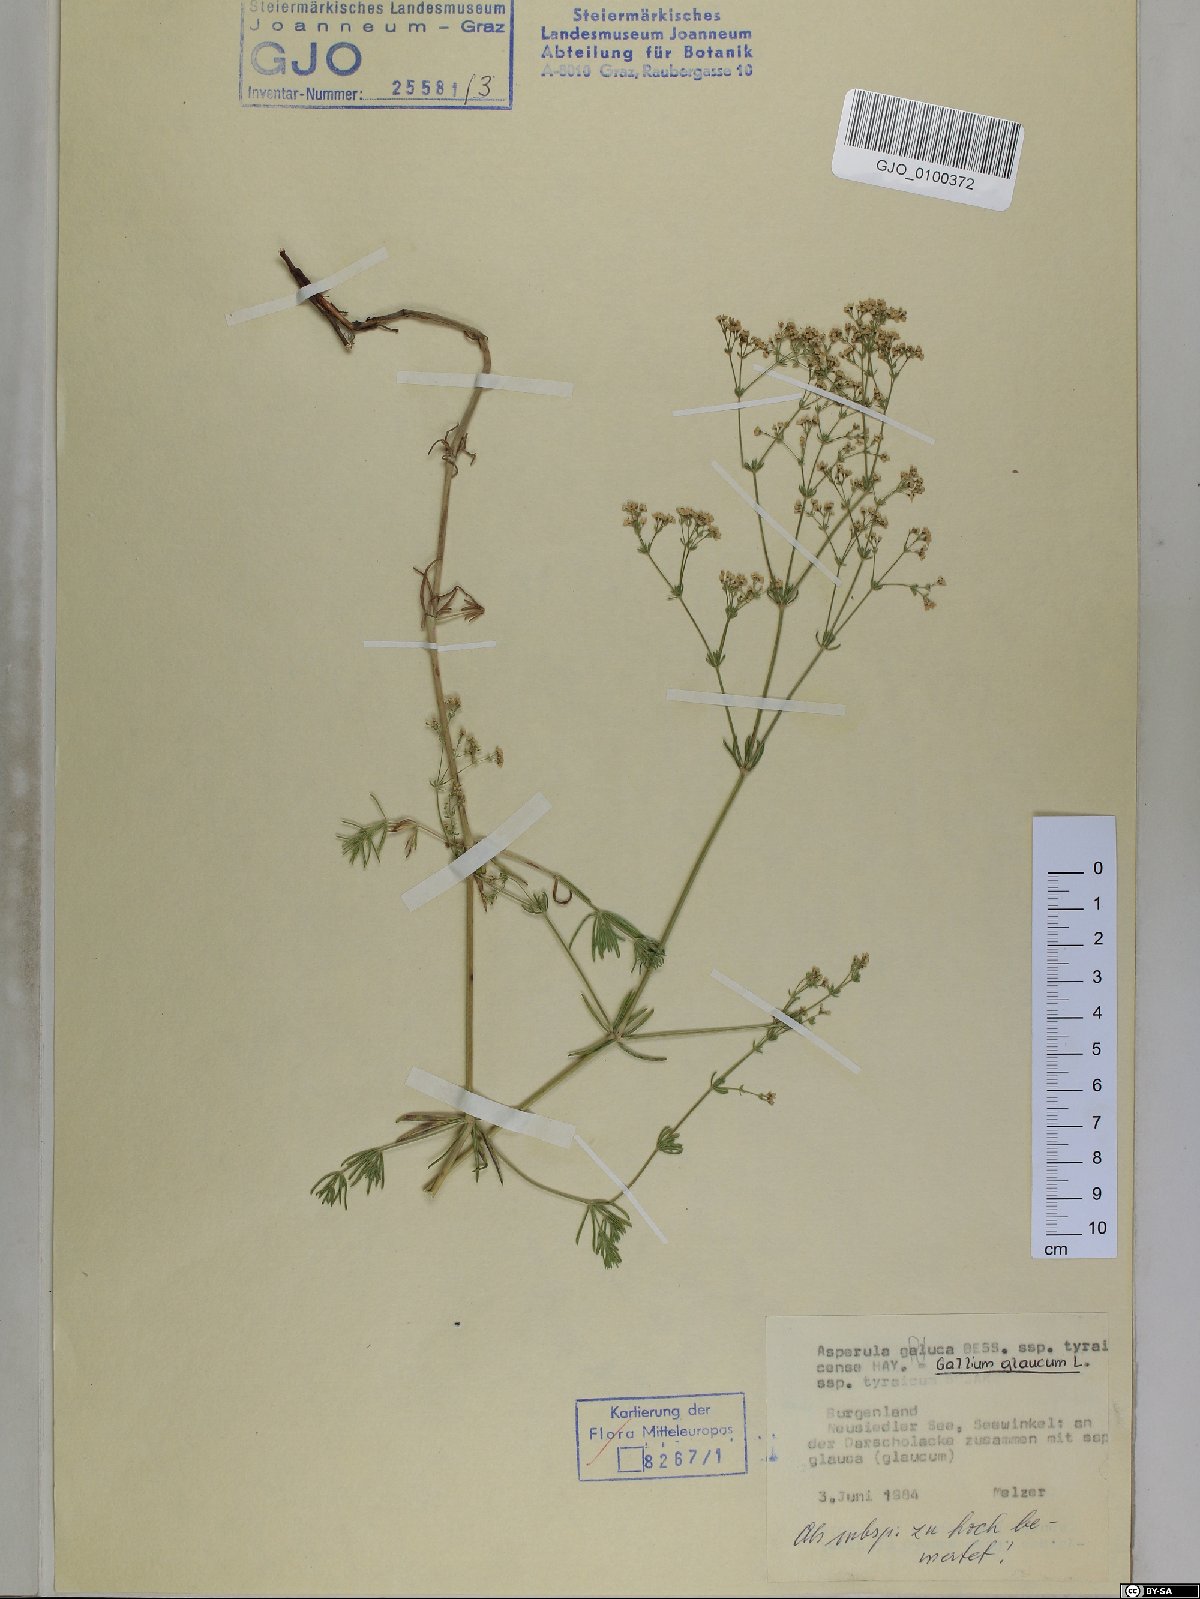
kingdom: Plantae
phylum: Tracheophyta
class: Magnoliopsida
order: Gentianales
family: Rubiaceae
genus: Galium
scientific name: Galium glaucum
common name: Waxy bedstraw
